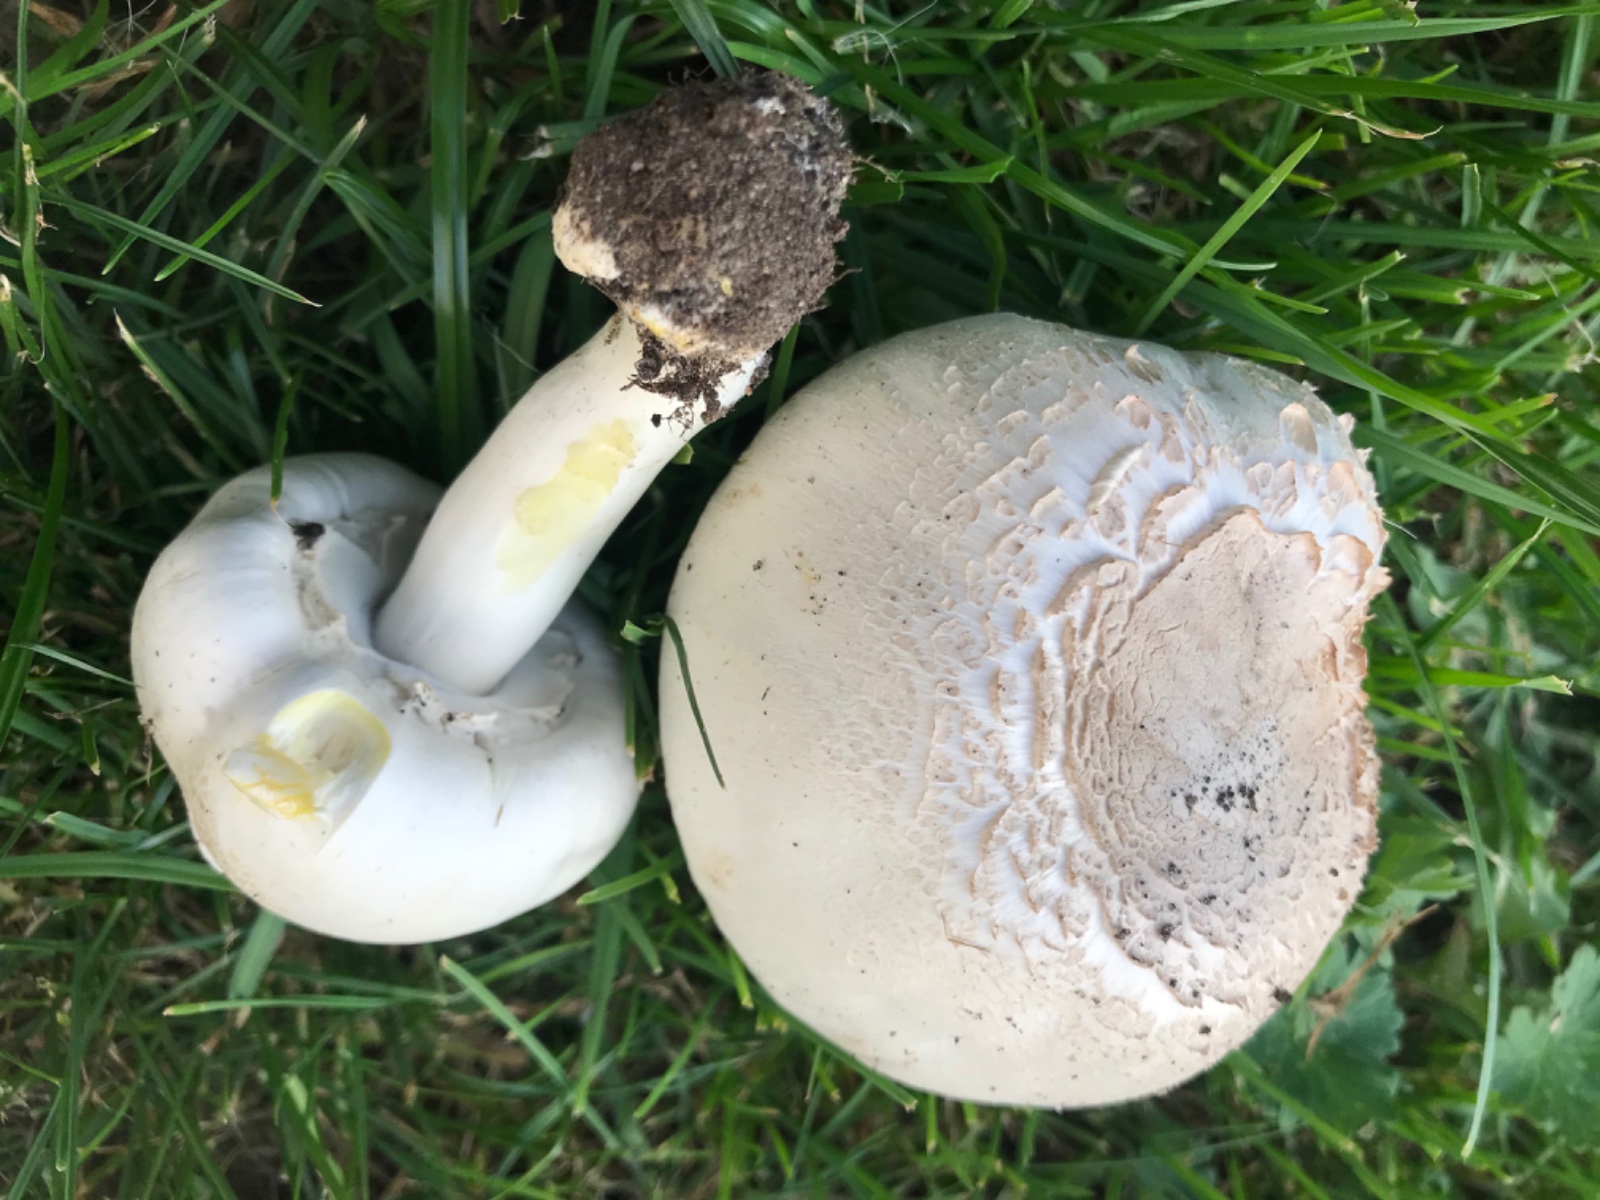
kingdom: Fungi
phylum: Basidiomycota
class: Agaricomycetes
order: Agaricales
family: Agaricaceae
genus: Agaricus
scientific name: Agaricus xanthodermus
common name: karbol-champignon
